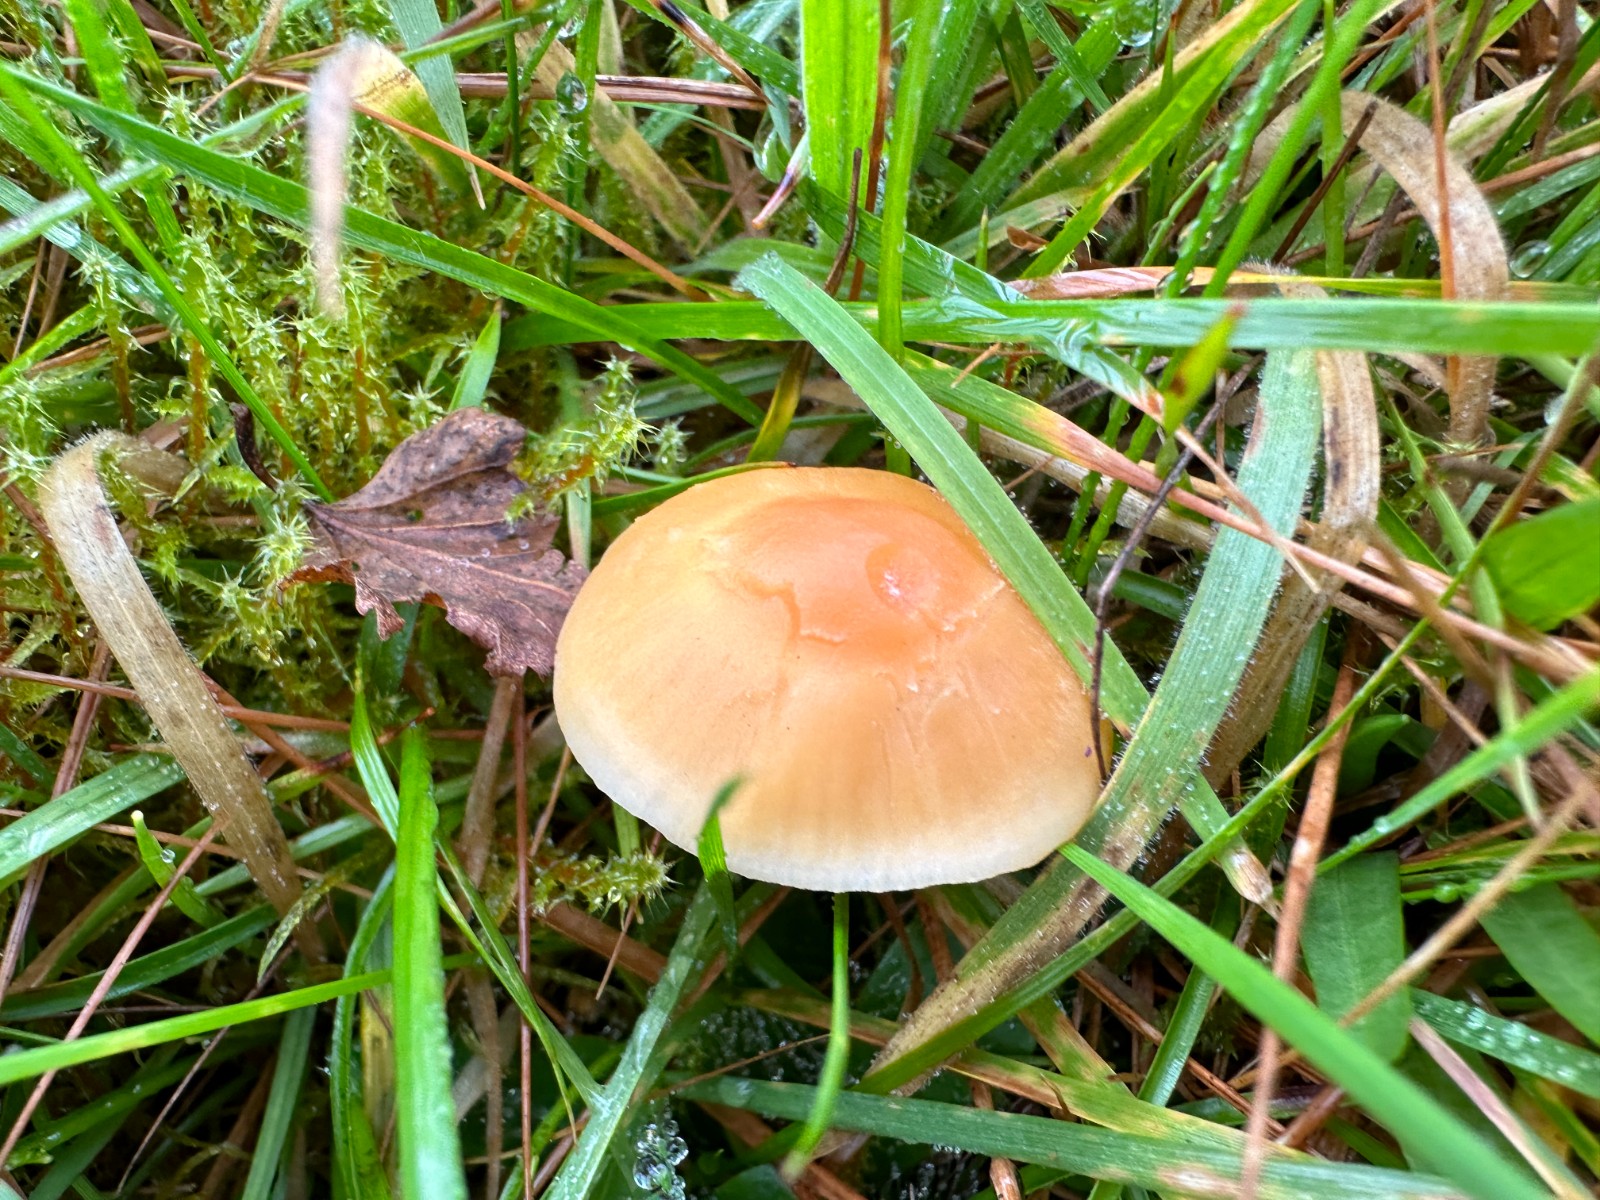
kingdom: Fungi
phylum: Basidiomycota
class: Agaricomycetes
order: Agaricales
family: Hygrophoraceae
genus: Cuphophyllus
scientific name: Cuphophyllus pratensis
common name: eng-vokshat
